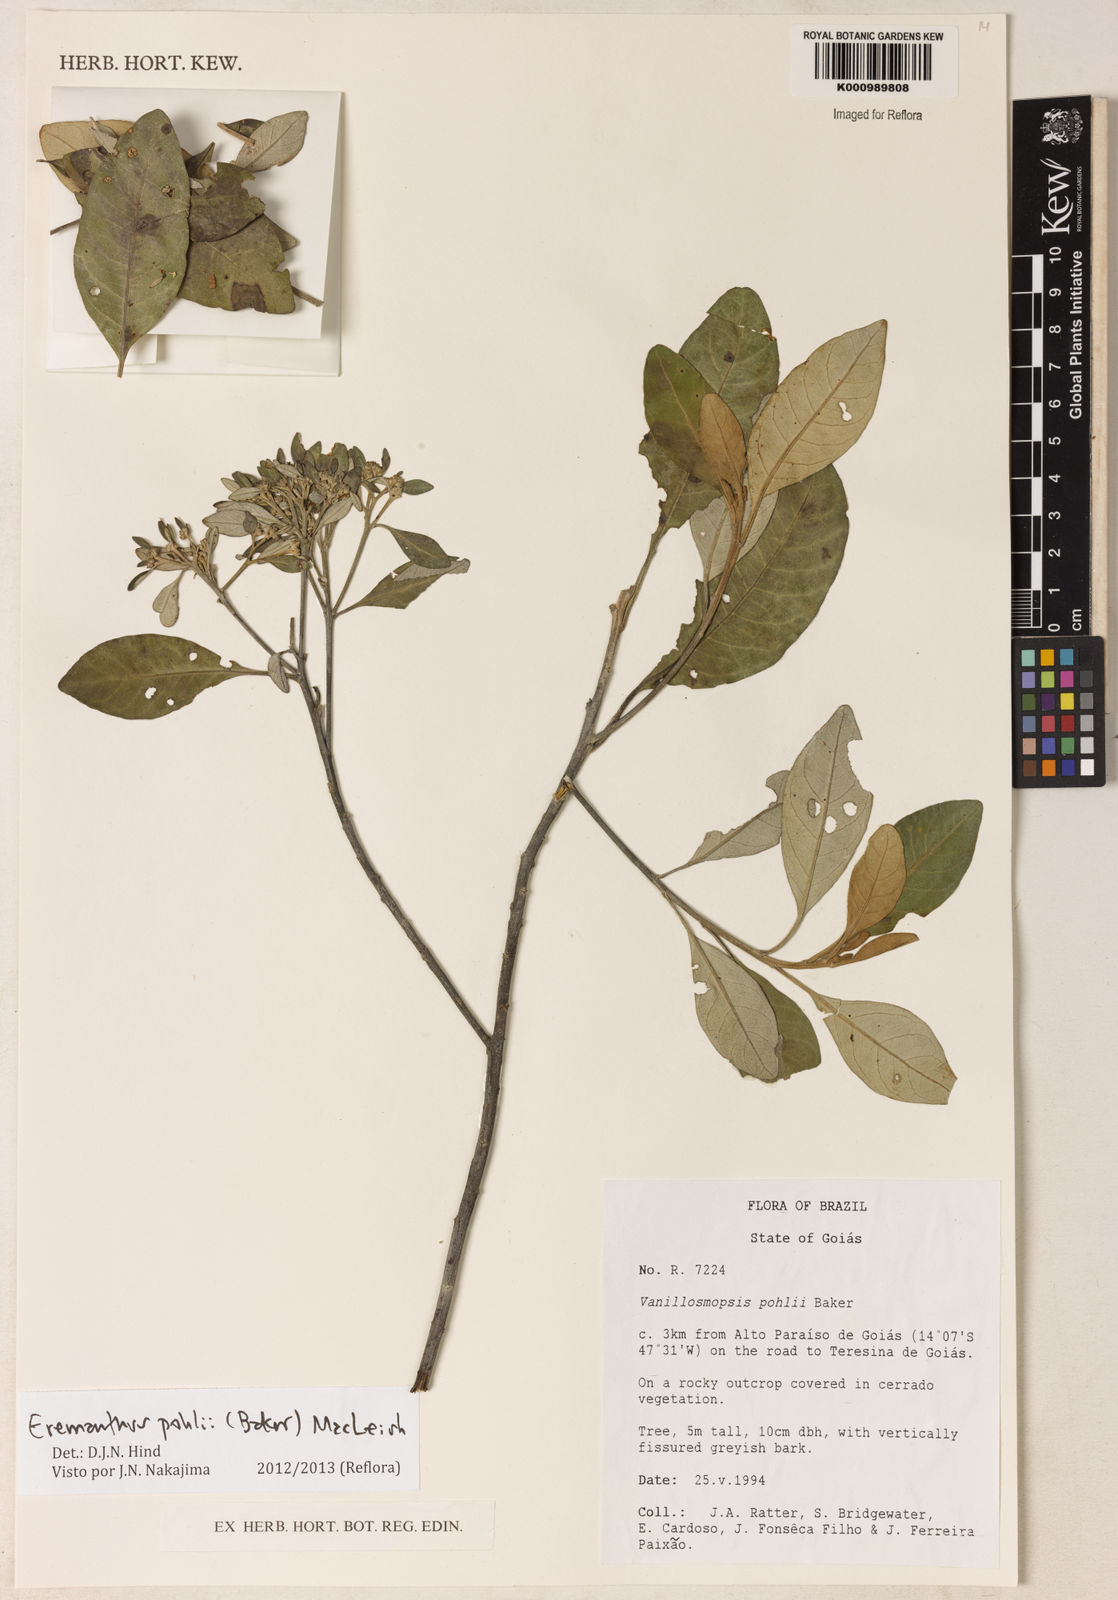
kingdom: Plantae
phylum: Tracheophyta
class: Magnoliopsida
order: Asterales
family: Asteraceae
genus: Eremanthus
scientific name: Eremanthus capitatus
